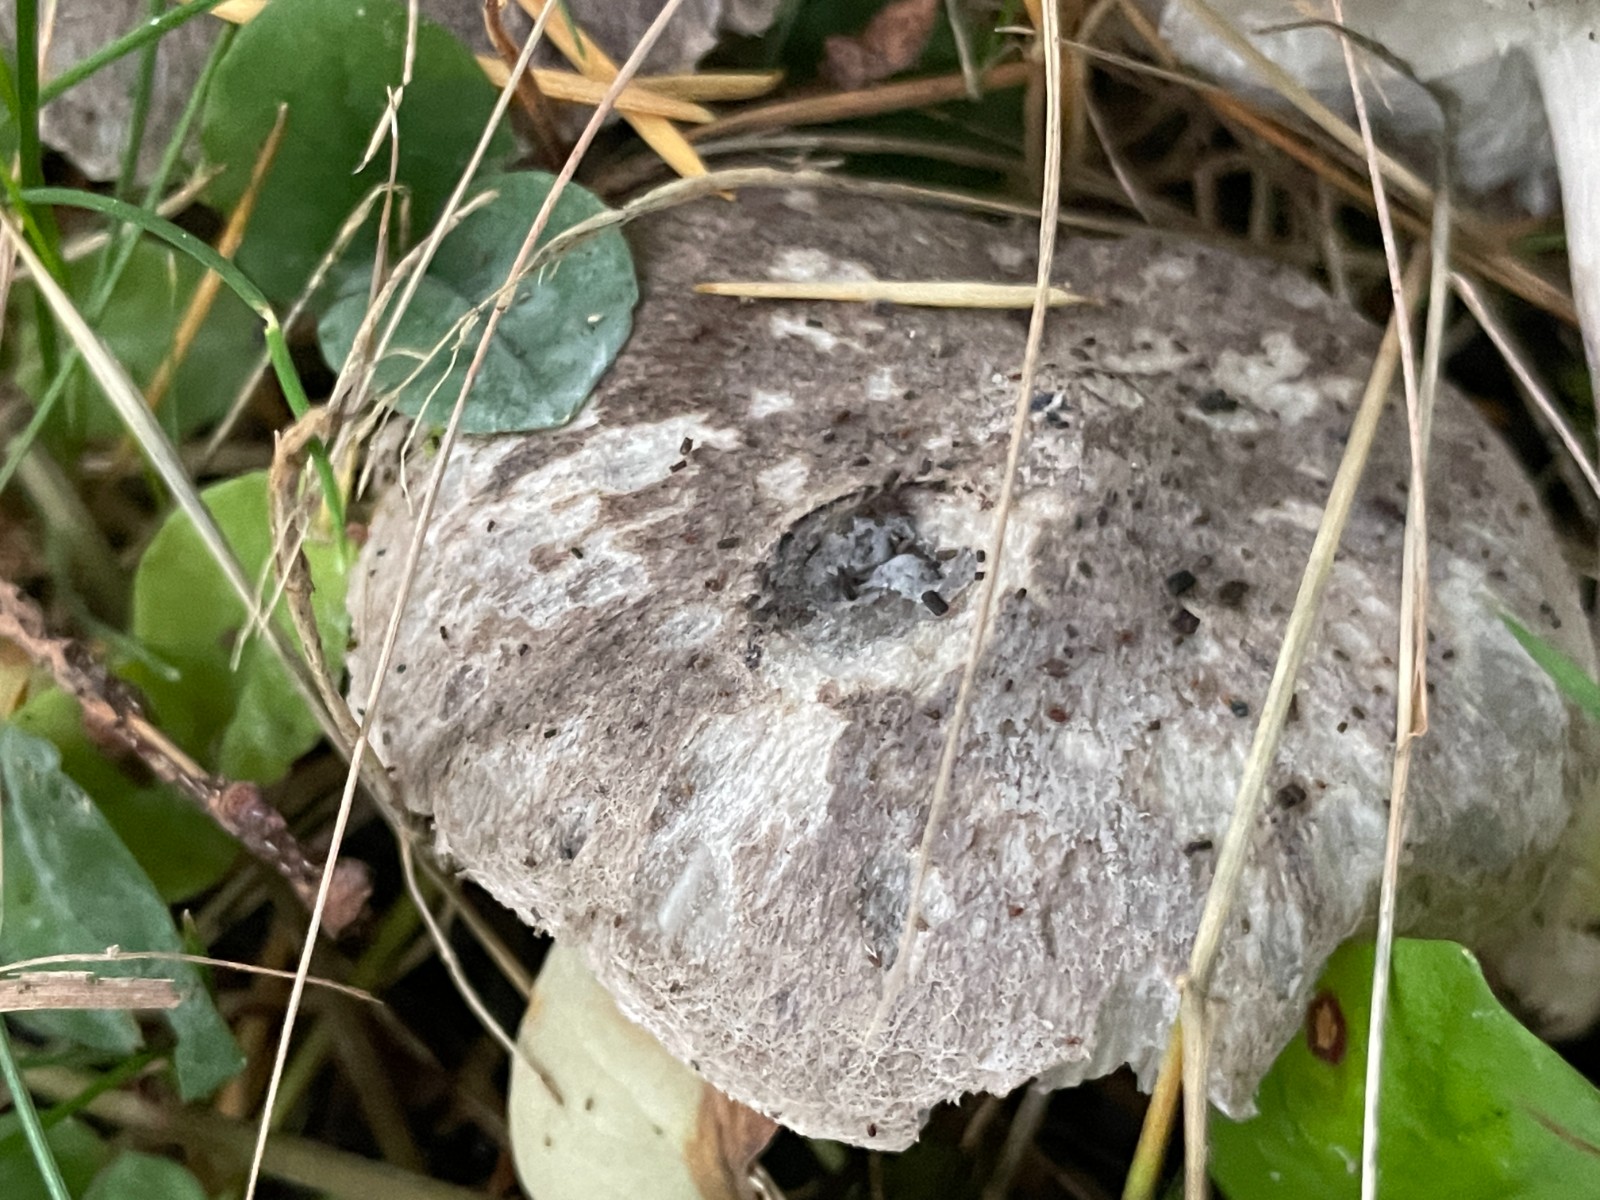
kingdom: Fungi
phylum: Basidiomycota
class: Agaricomycetes
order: Agaricales
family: Tricholomataceae
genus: Tricholoma
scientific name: Tricholoma terreum
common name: jordfarvet ridderhat
